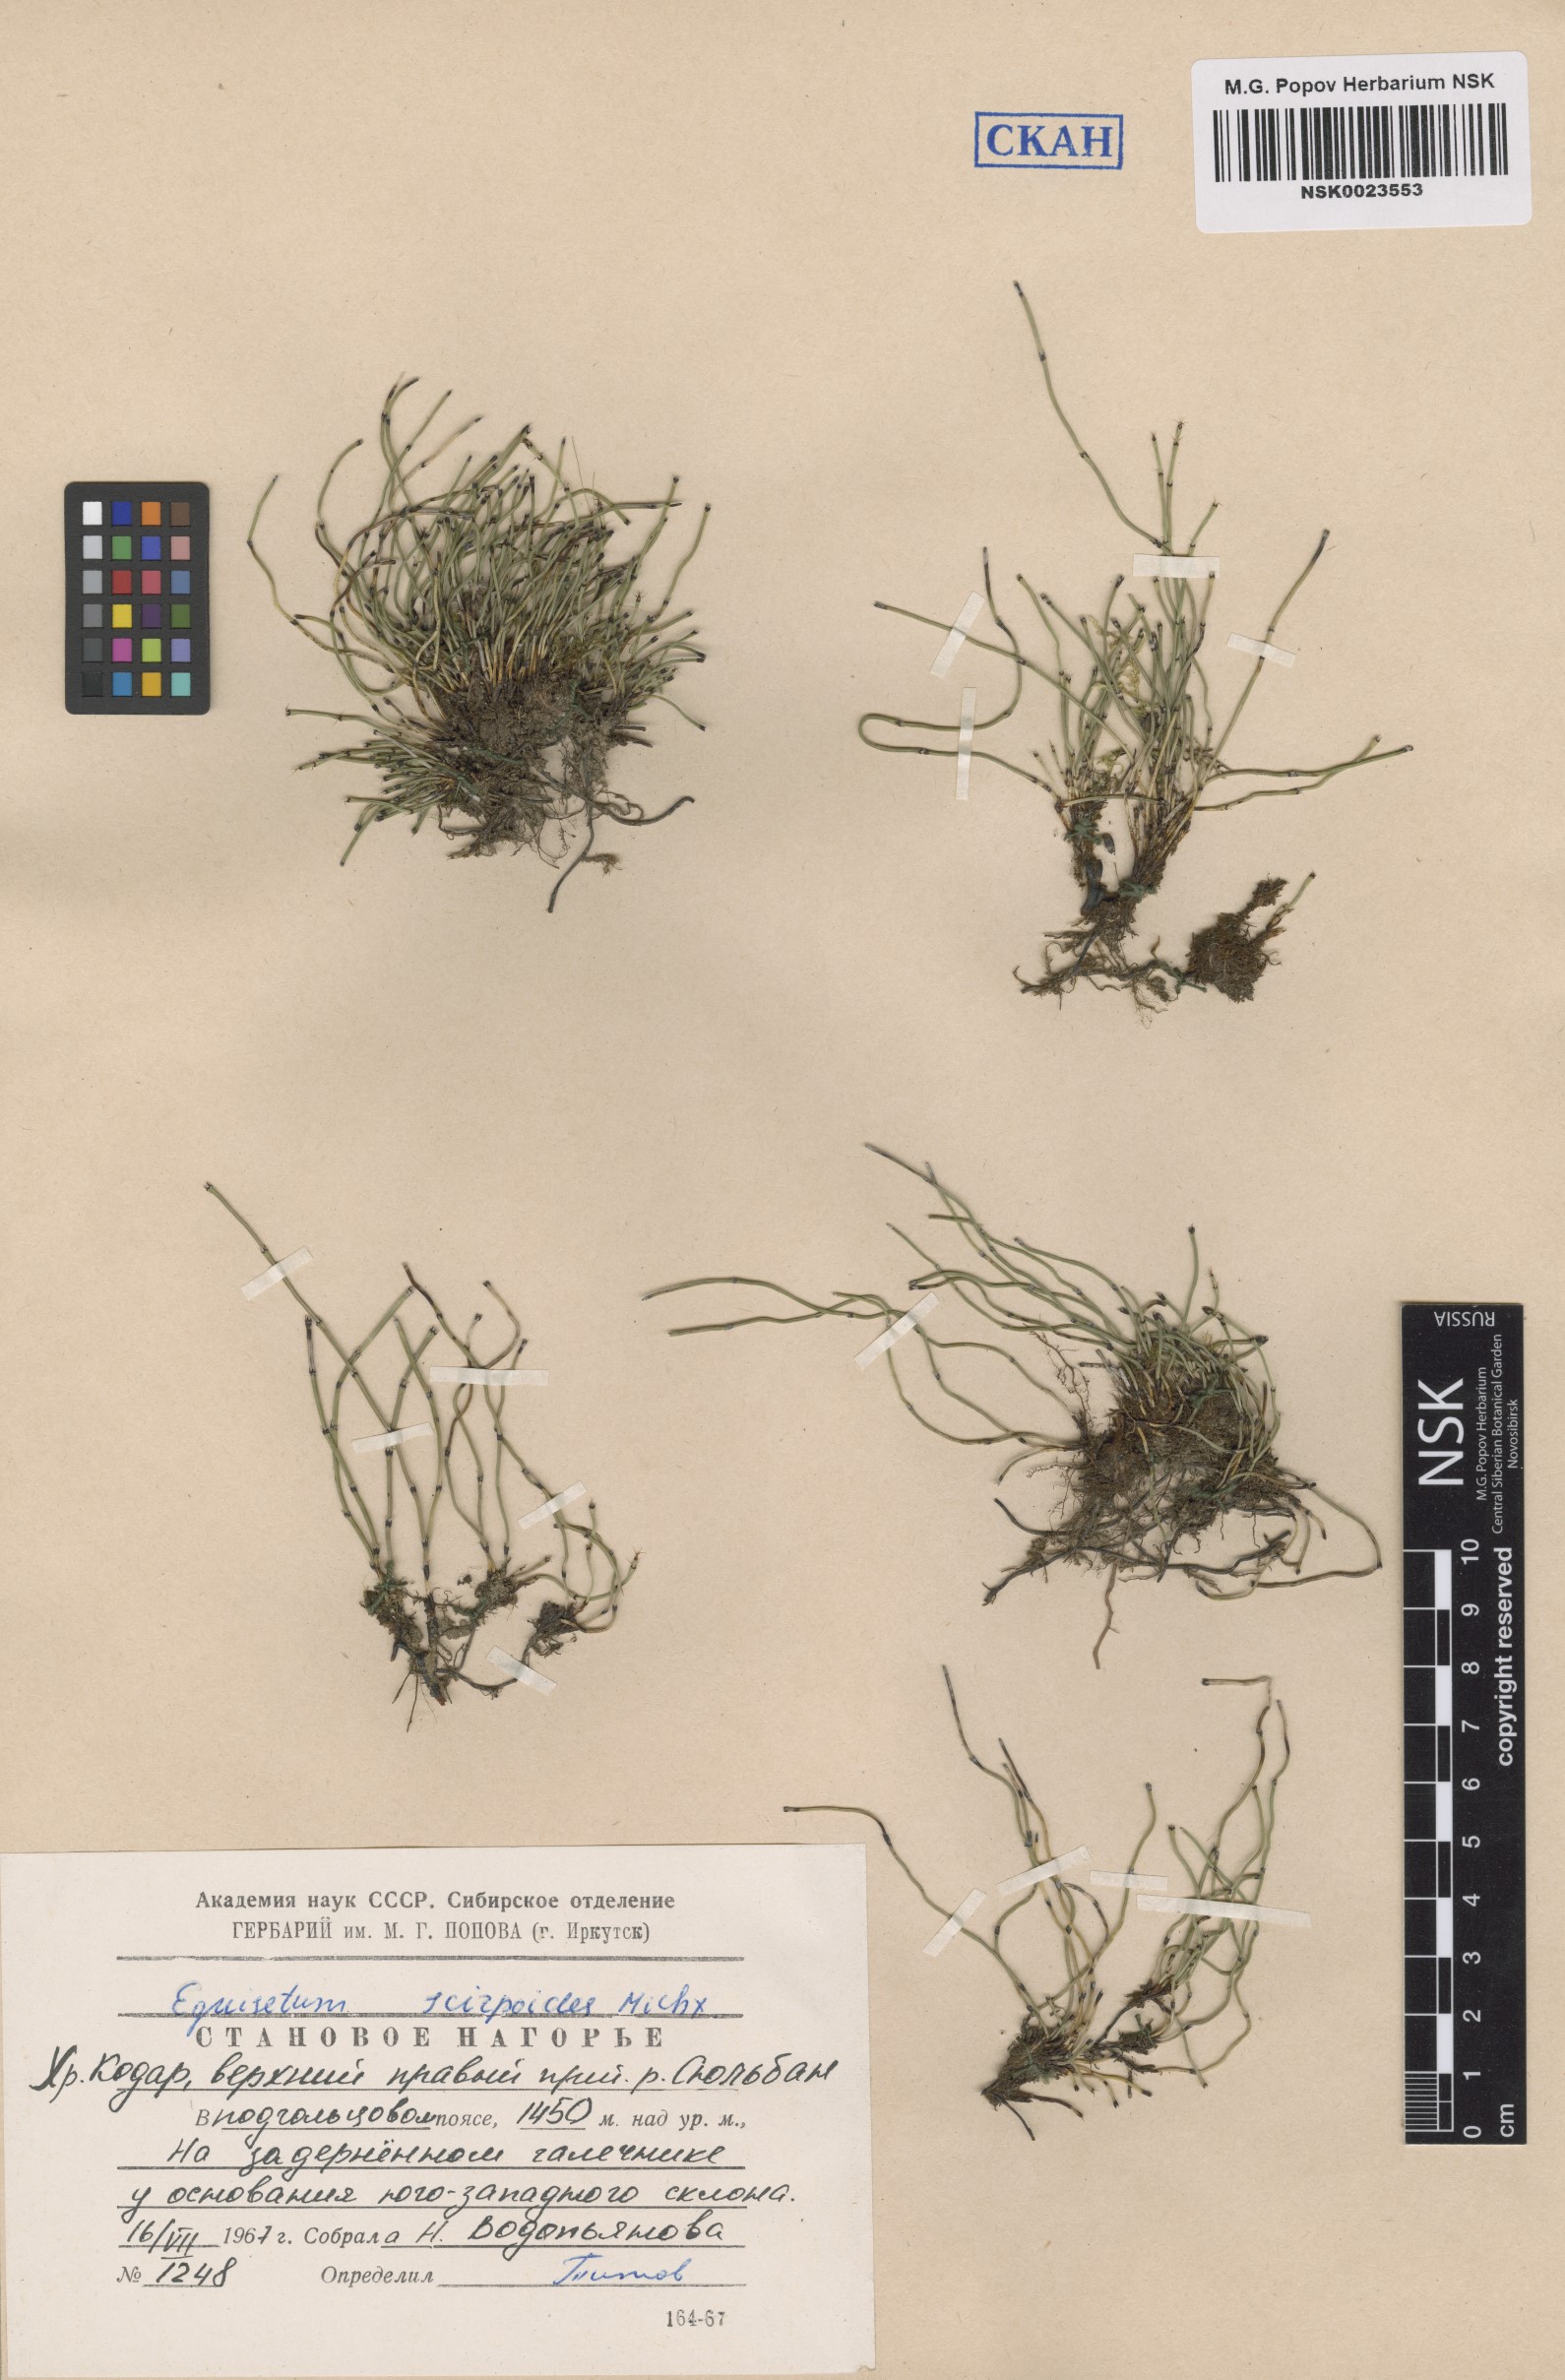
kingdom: Plantae
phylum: Tracheophyta
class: Polypodiopsida
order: Equisetales
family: Equisetaceae
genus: Equisetum
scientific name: Equisetum scirpoides
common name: Delicate horsetail
